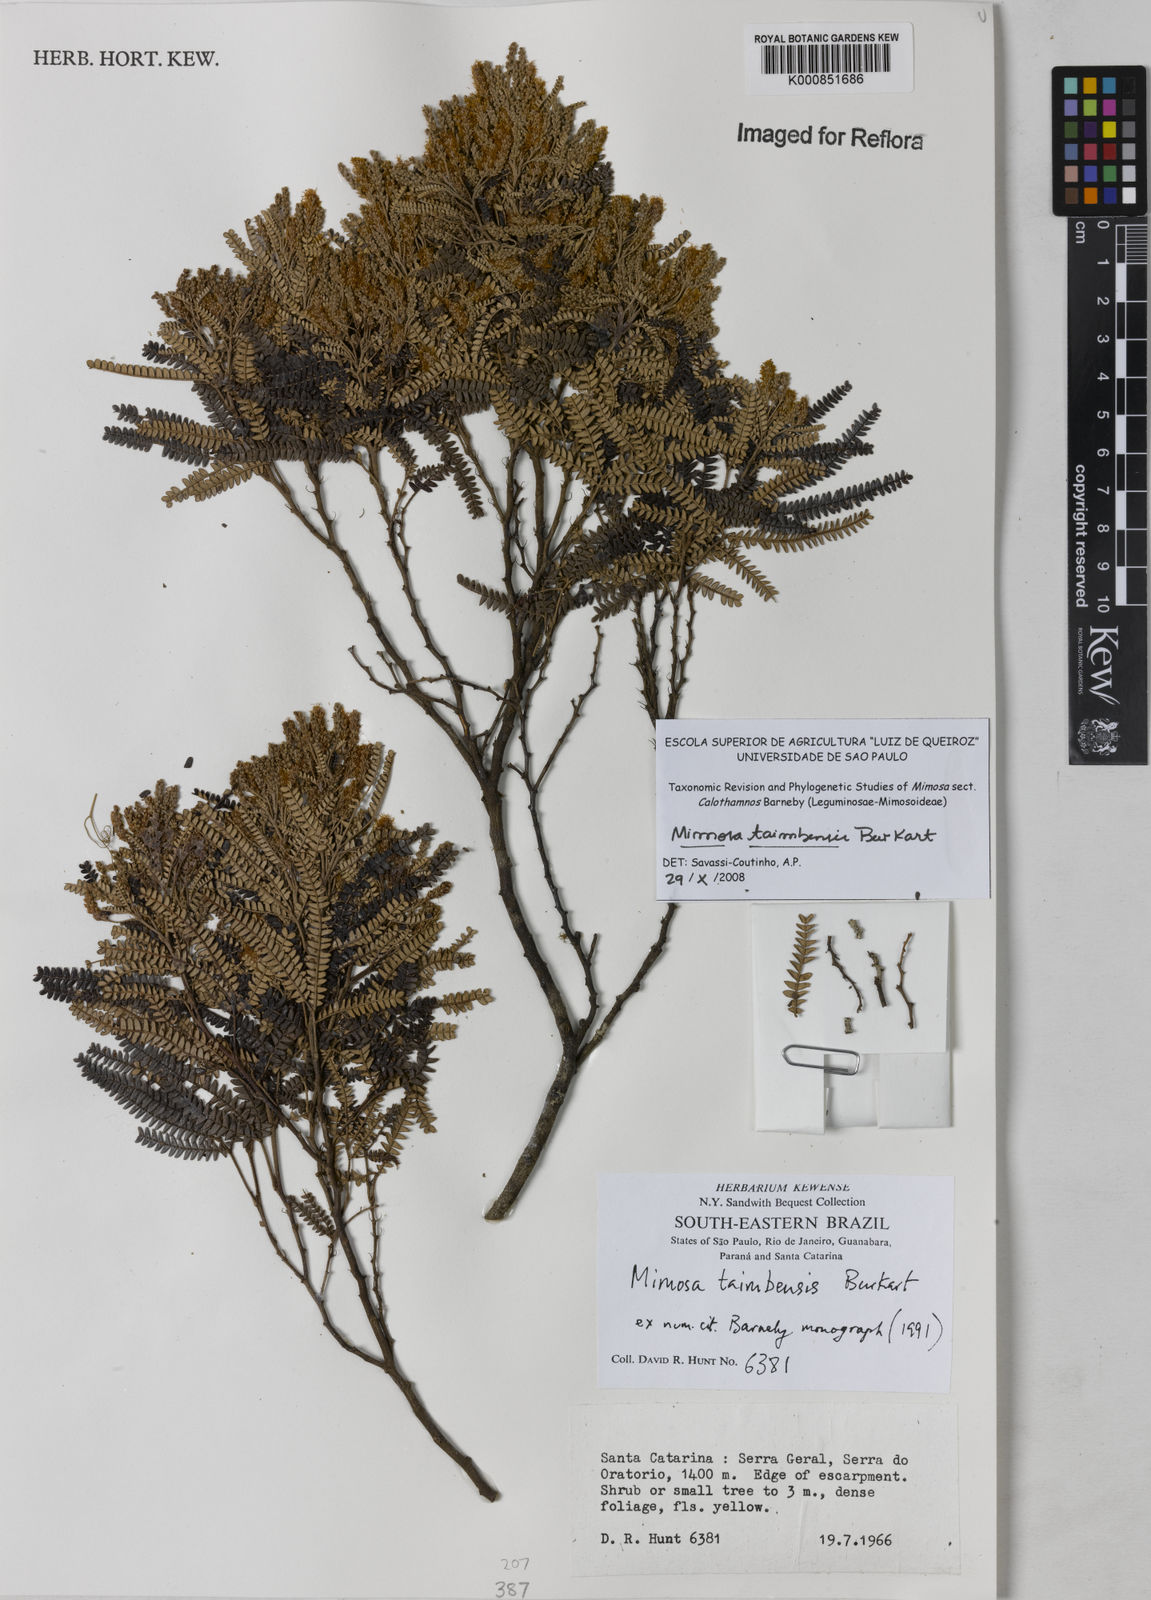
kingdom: Plantae
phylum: Tracheophyta
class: Magnoliopsida
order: Fabales
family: Fabaceae
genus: Mimosa
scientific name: Mimosa taimbensis
